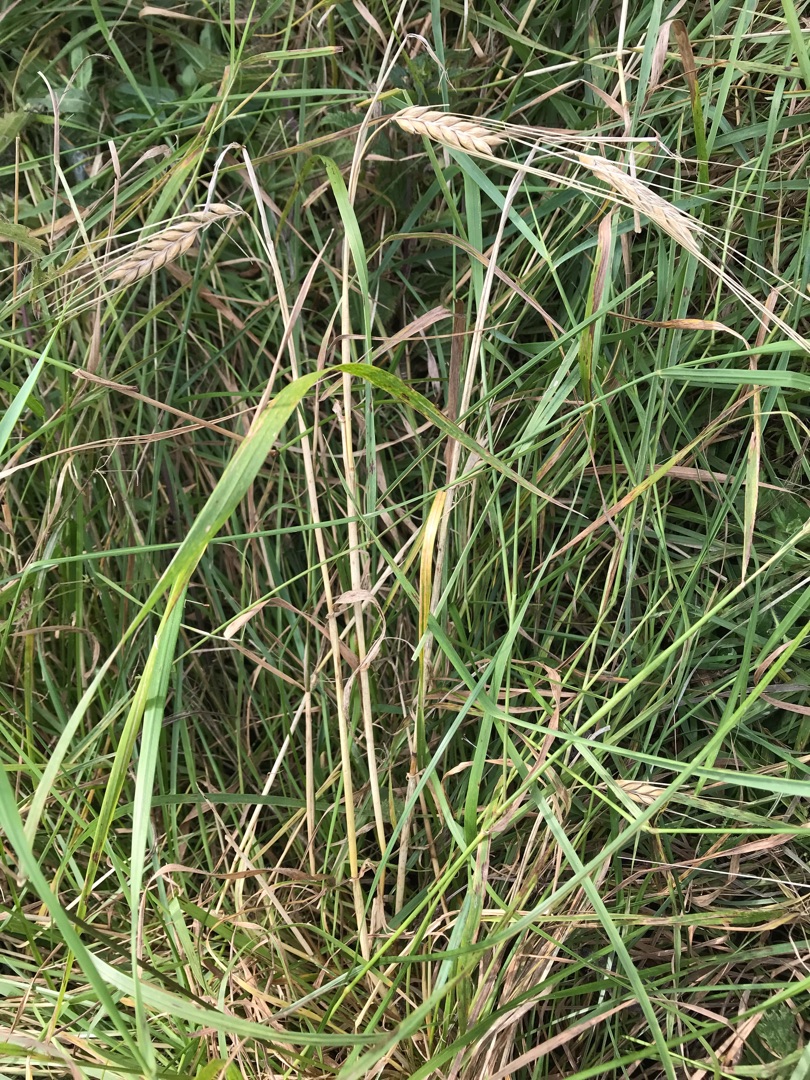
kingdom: Plantae
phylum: Tracheophyta
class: Liliopsida
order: Poales
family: Poaceae
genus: Hordeum
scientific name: Hordeum vulgare
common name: Toradet byg
